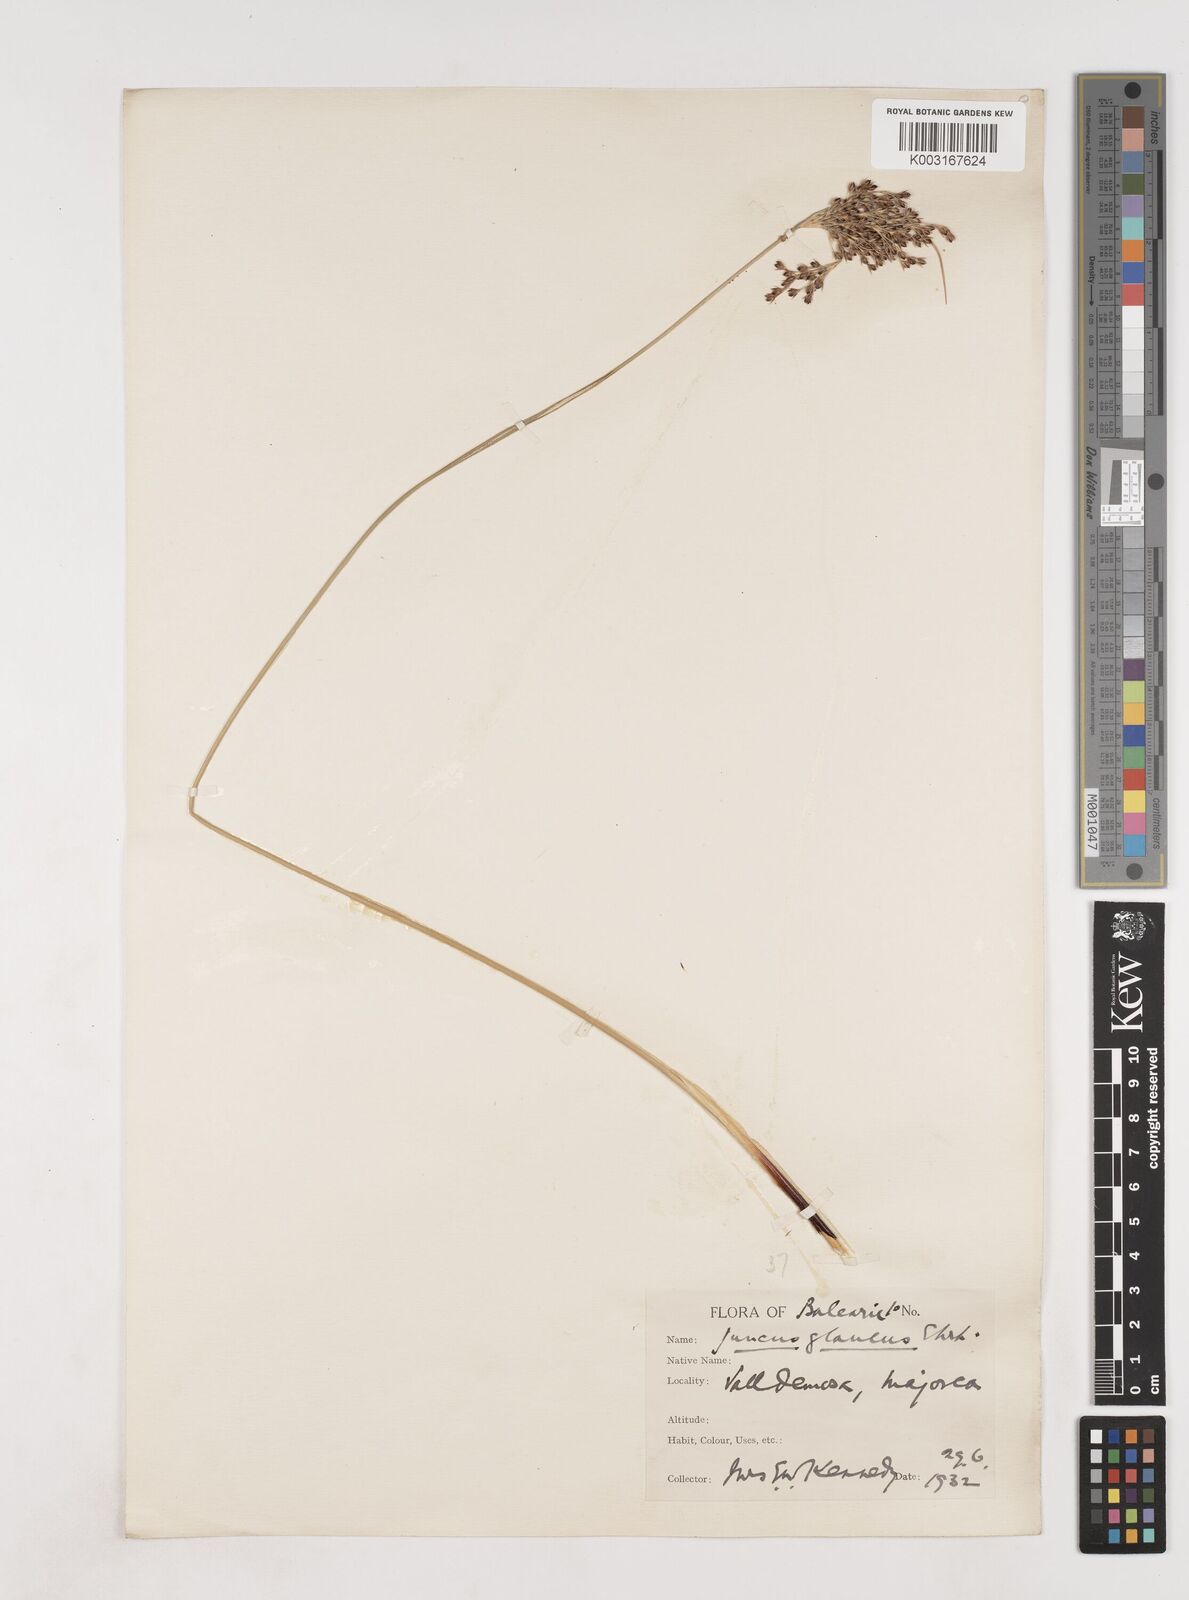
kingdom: Plantae
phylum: Tracheophyta
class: Liliopsida
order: Poales
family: Juncaceae
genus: Juncus
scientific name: Juncus inflexus
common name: Hard rush
